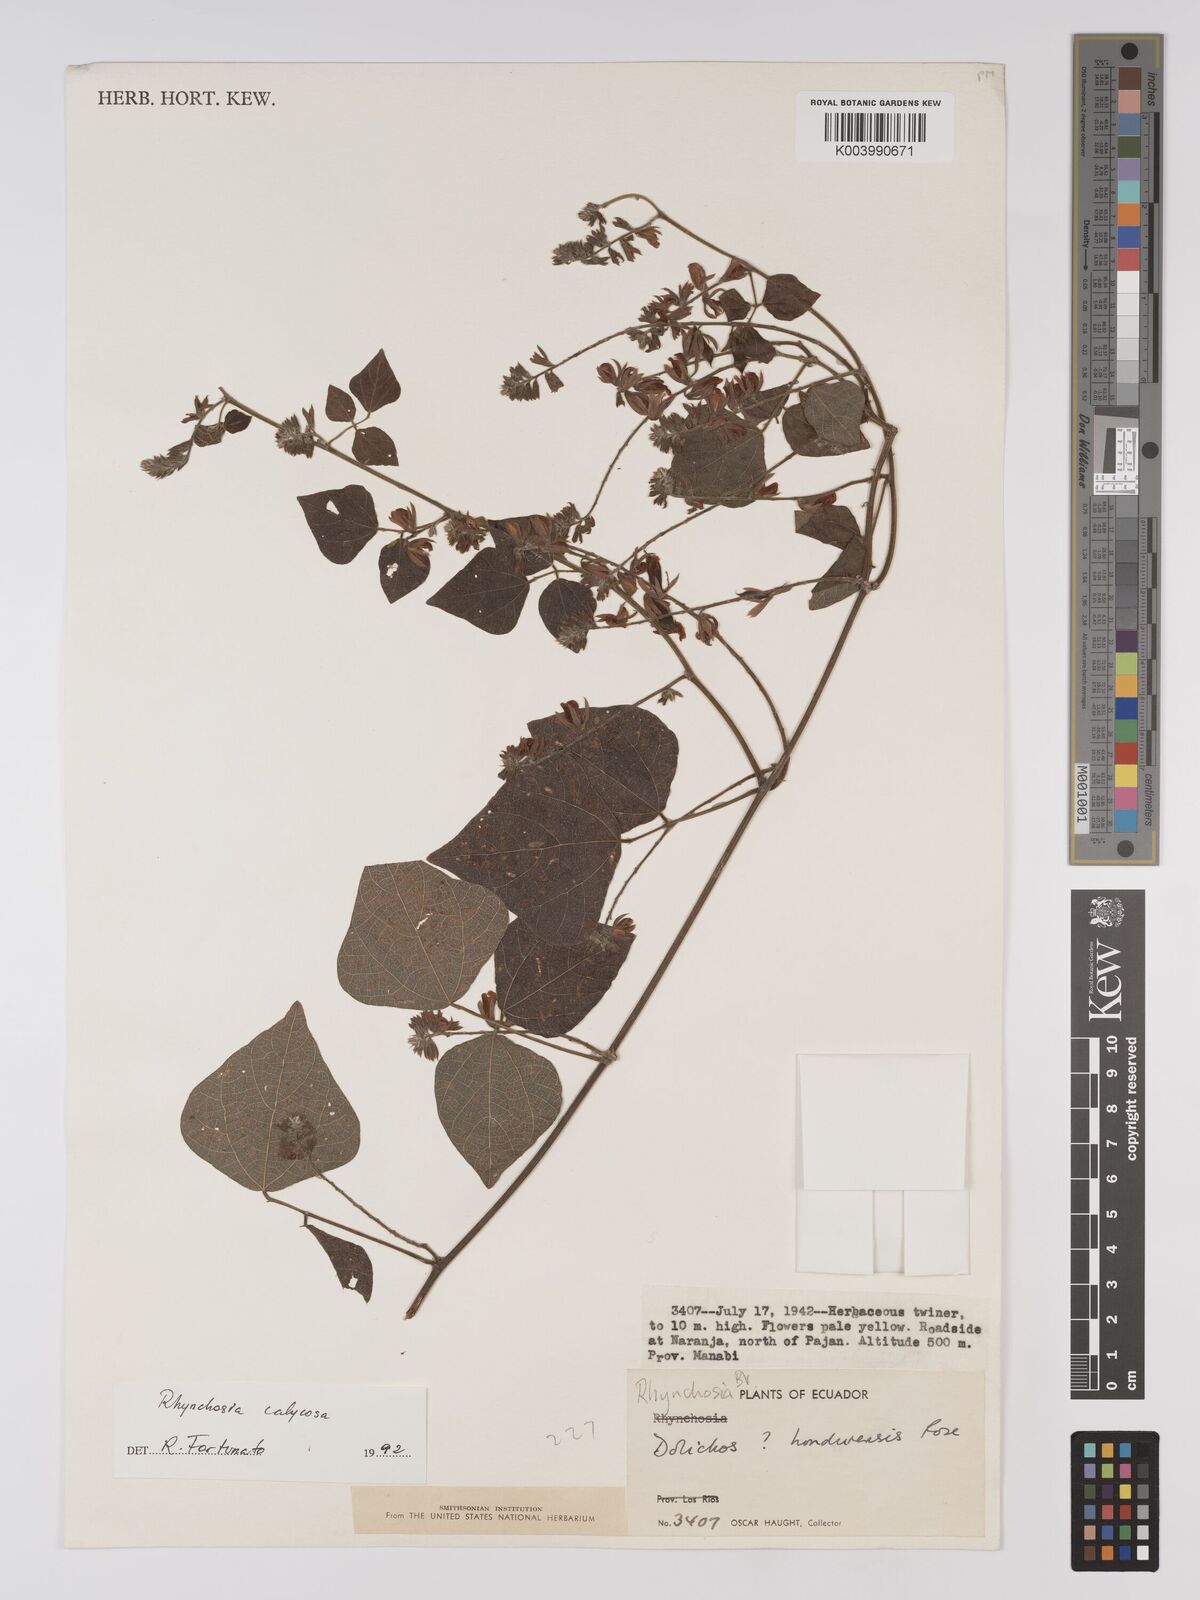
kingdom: Plantae
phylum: Tracheophyta
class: Magnoliopsida
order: Fabales
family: Fabaceae
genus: Rhynchosia
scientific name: Rhynchosia calycosa
